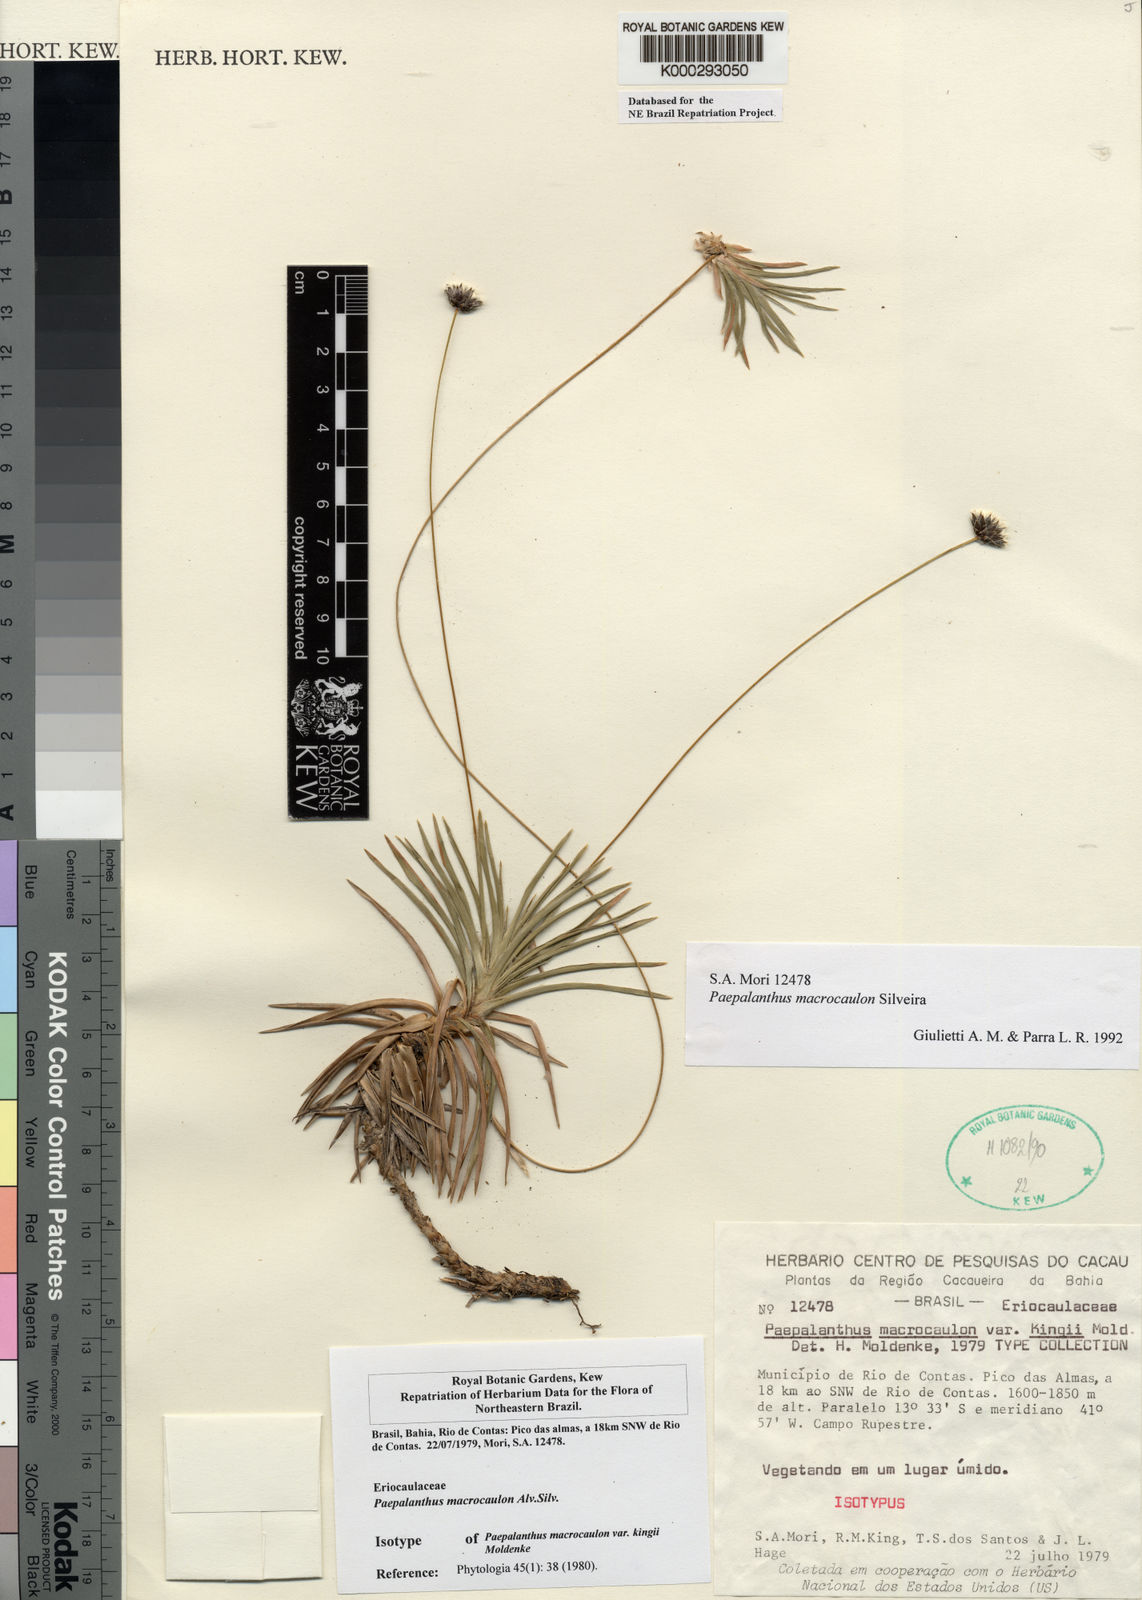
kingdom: Plantae
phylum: Tracheophyta
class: Liliopsida
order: Poales
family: Eriocaulaceae
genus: Paepalanthus
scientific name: Paepalanthus macrocaulon
